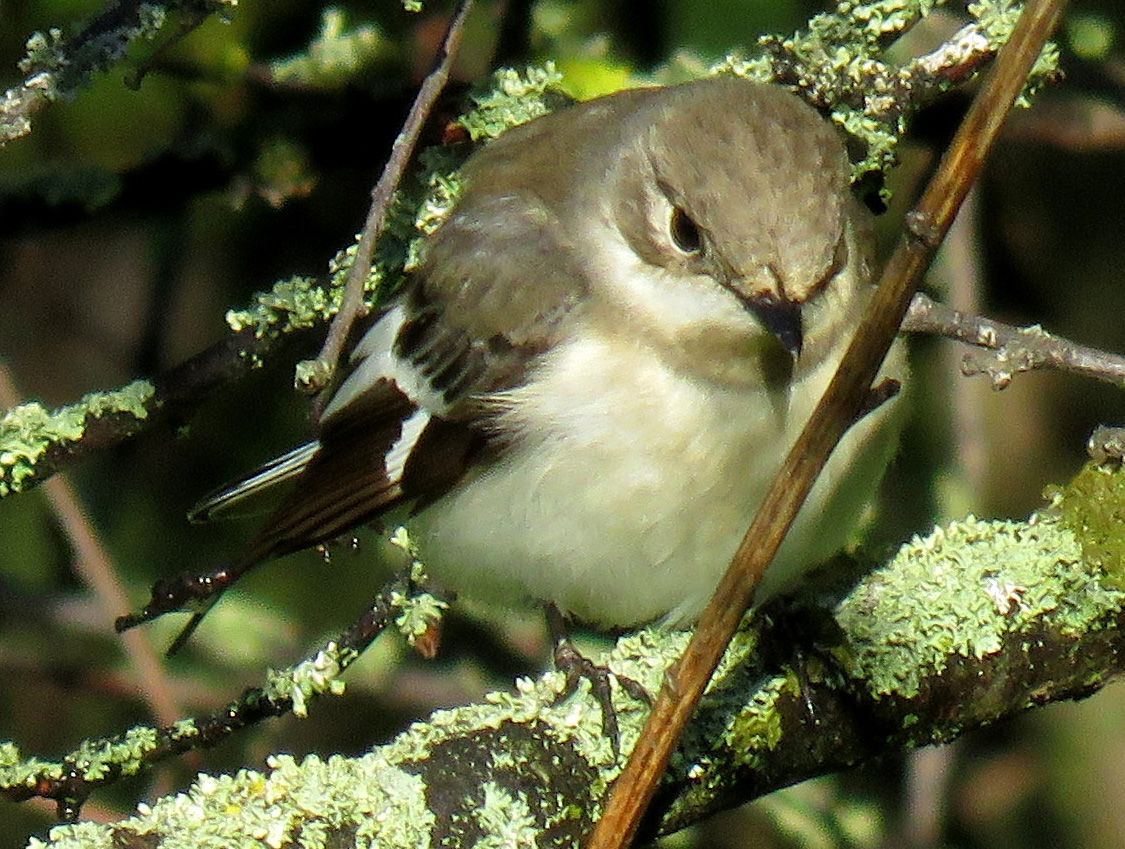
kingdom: Animalia
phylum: Chordata
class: Aves
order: Passeriformes
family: Muscicapidae
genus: Ficedula
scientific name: Ficedula albicollis
